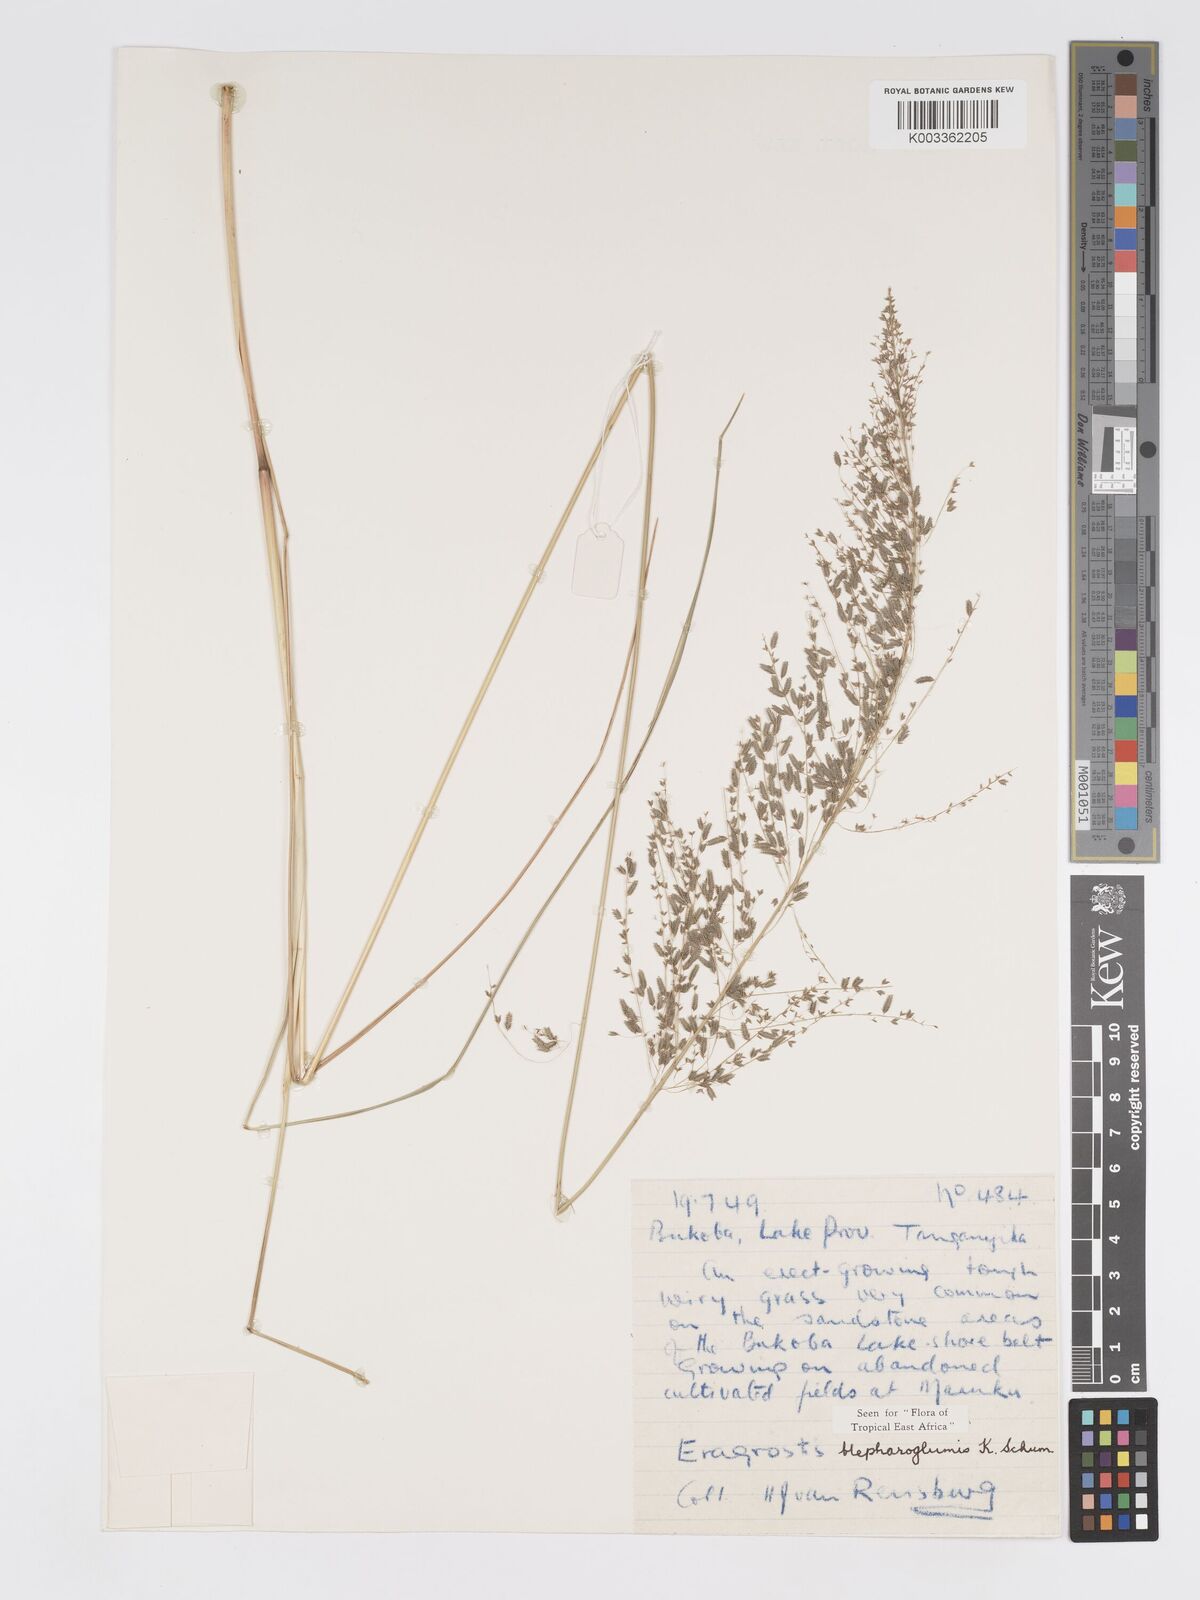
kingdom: Plantae
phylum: Tracheophyta
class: Liliopsida
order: Poales
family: Poaceae
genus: Eragrostis
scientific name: Eragrostis olivacea
